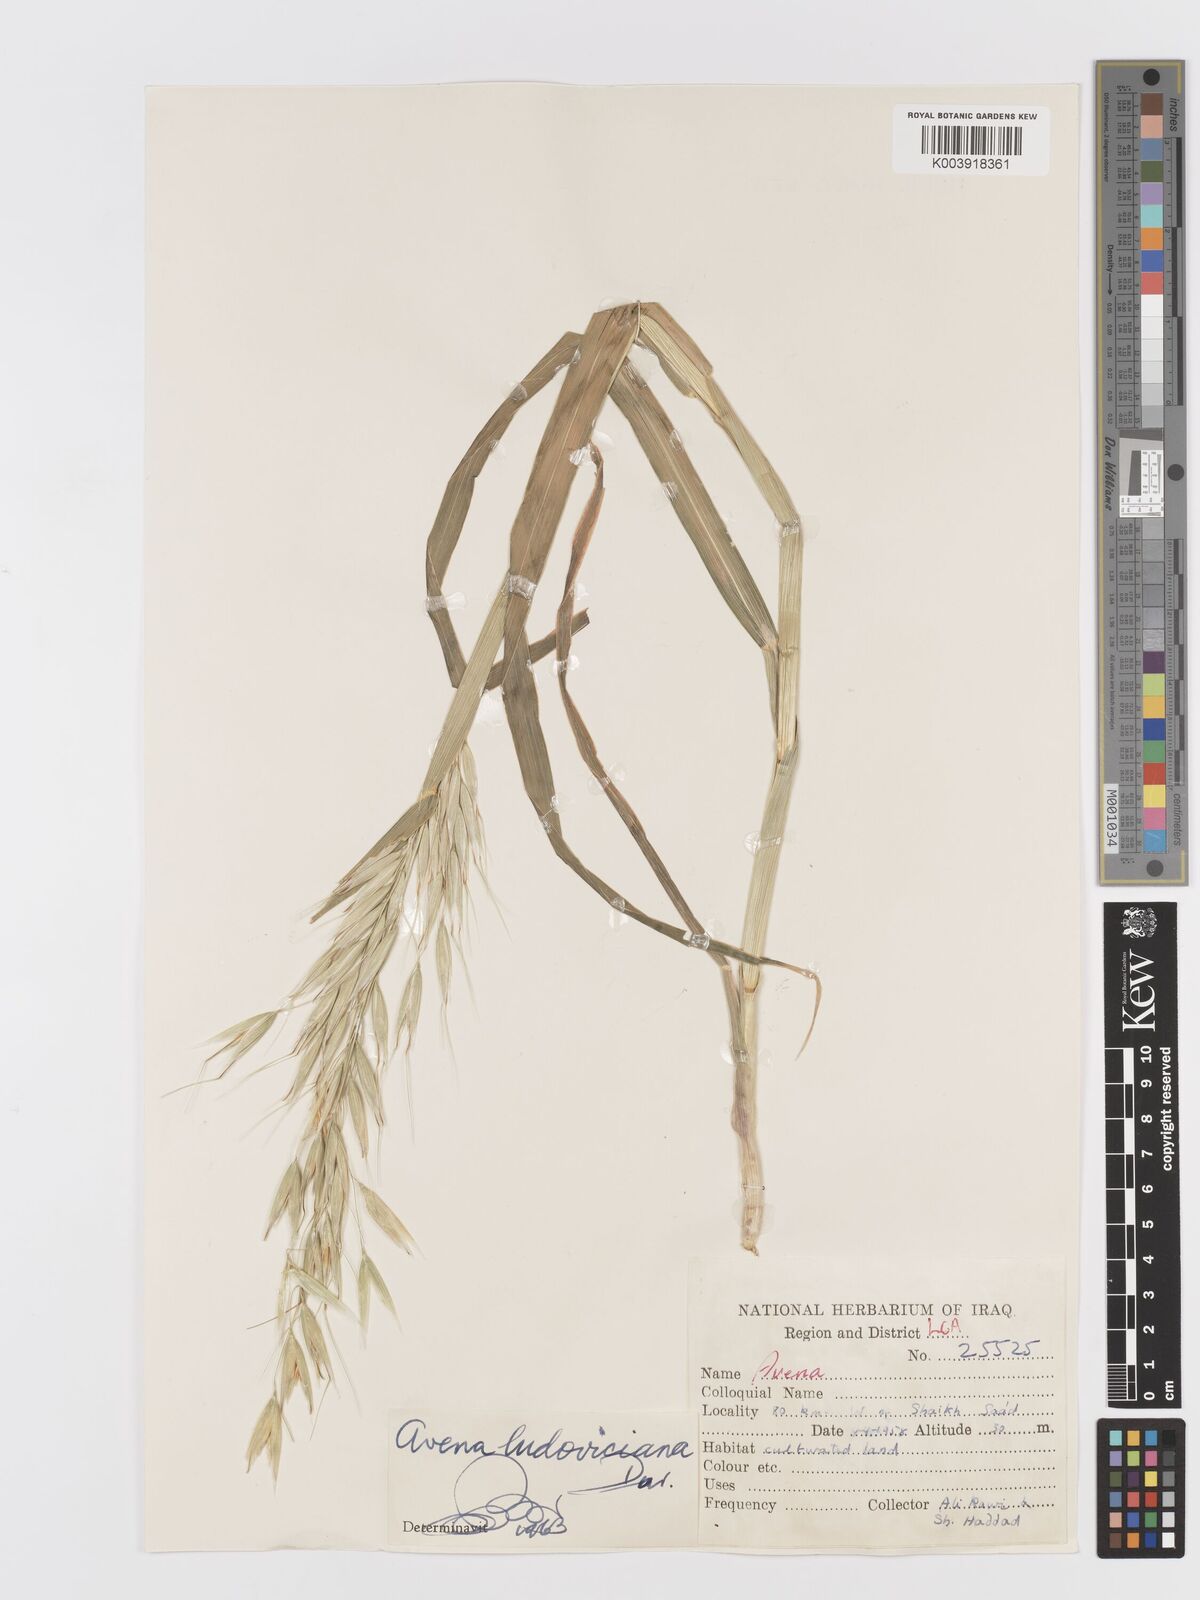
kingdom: Plantae
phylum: Tracheophyta
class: Liliopsida
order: Poales
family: Poaceae
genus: Avena
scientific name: Avena sterilis
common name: Animated oat
